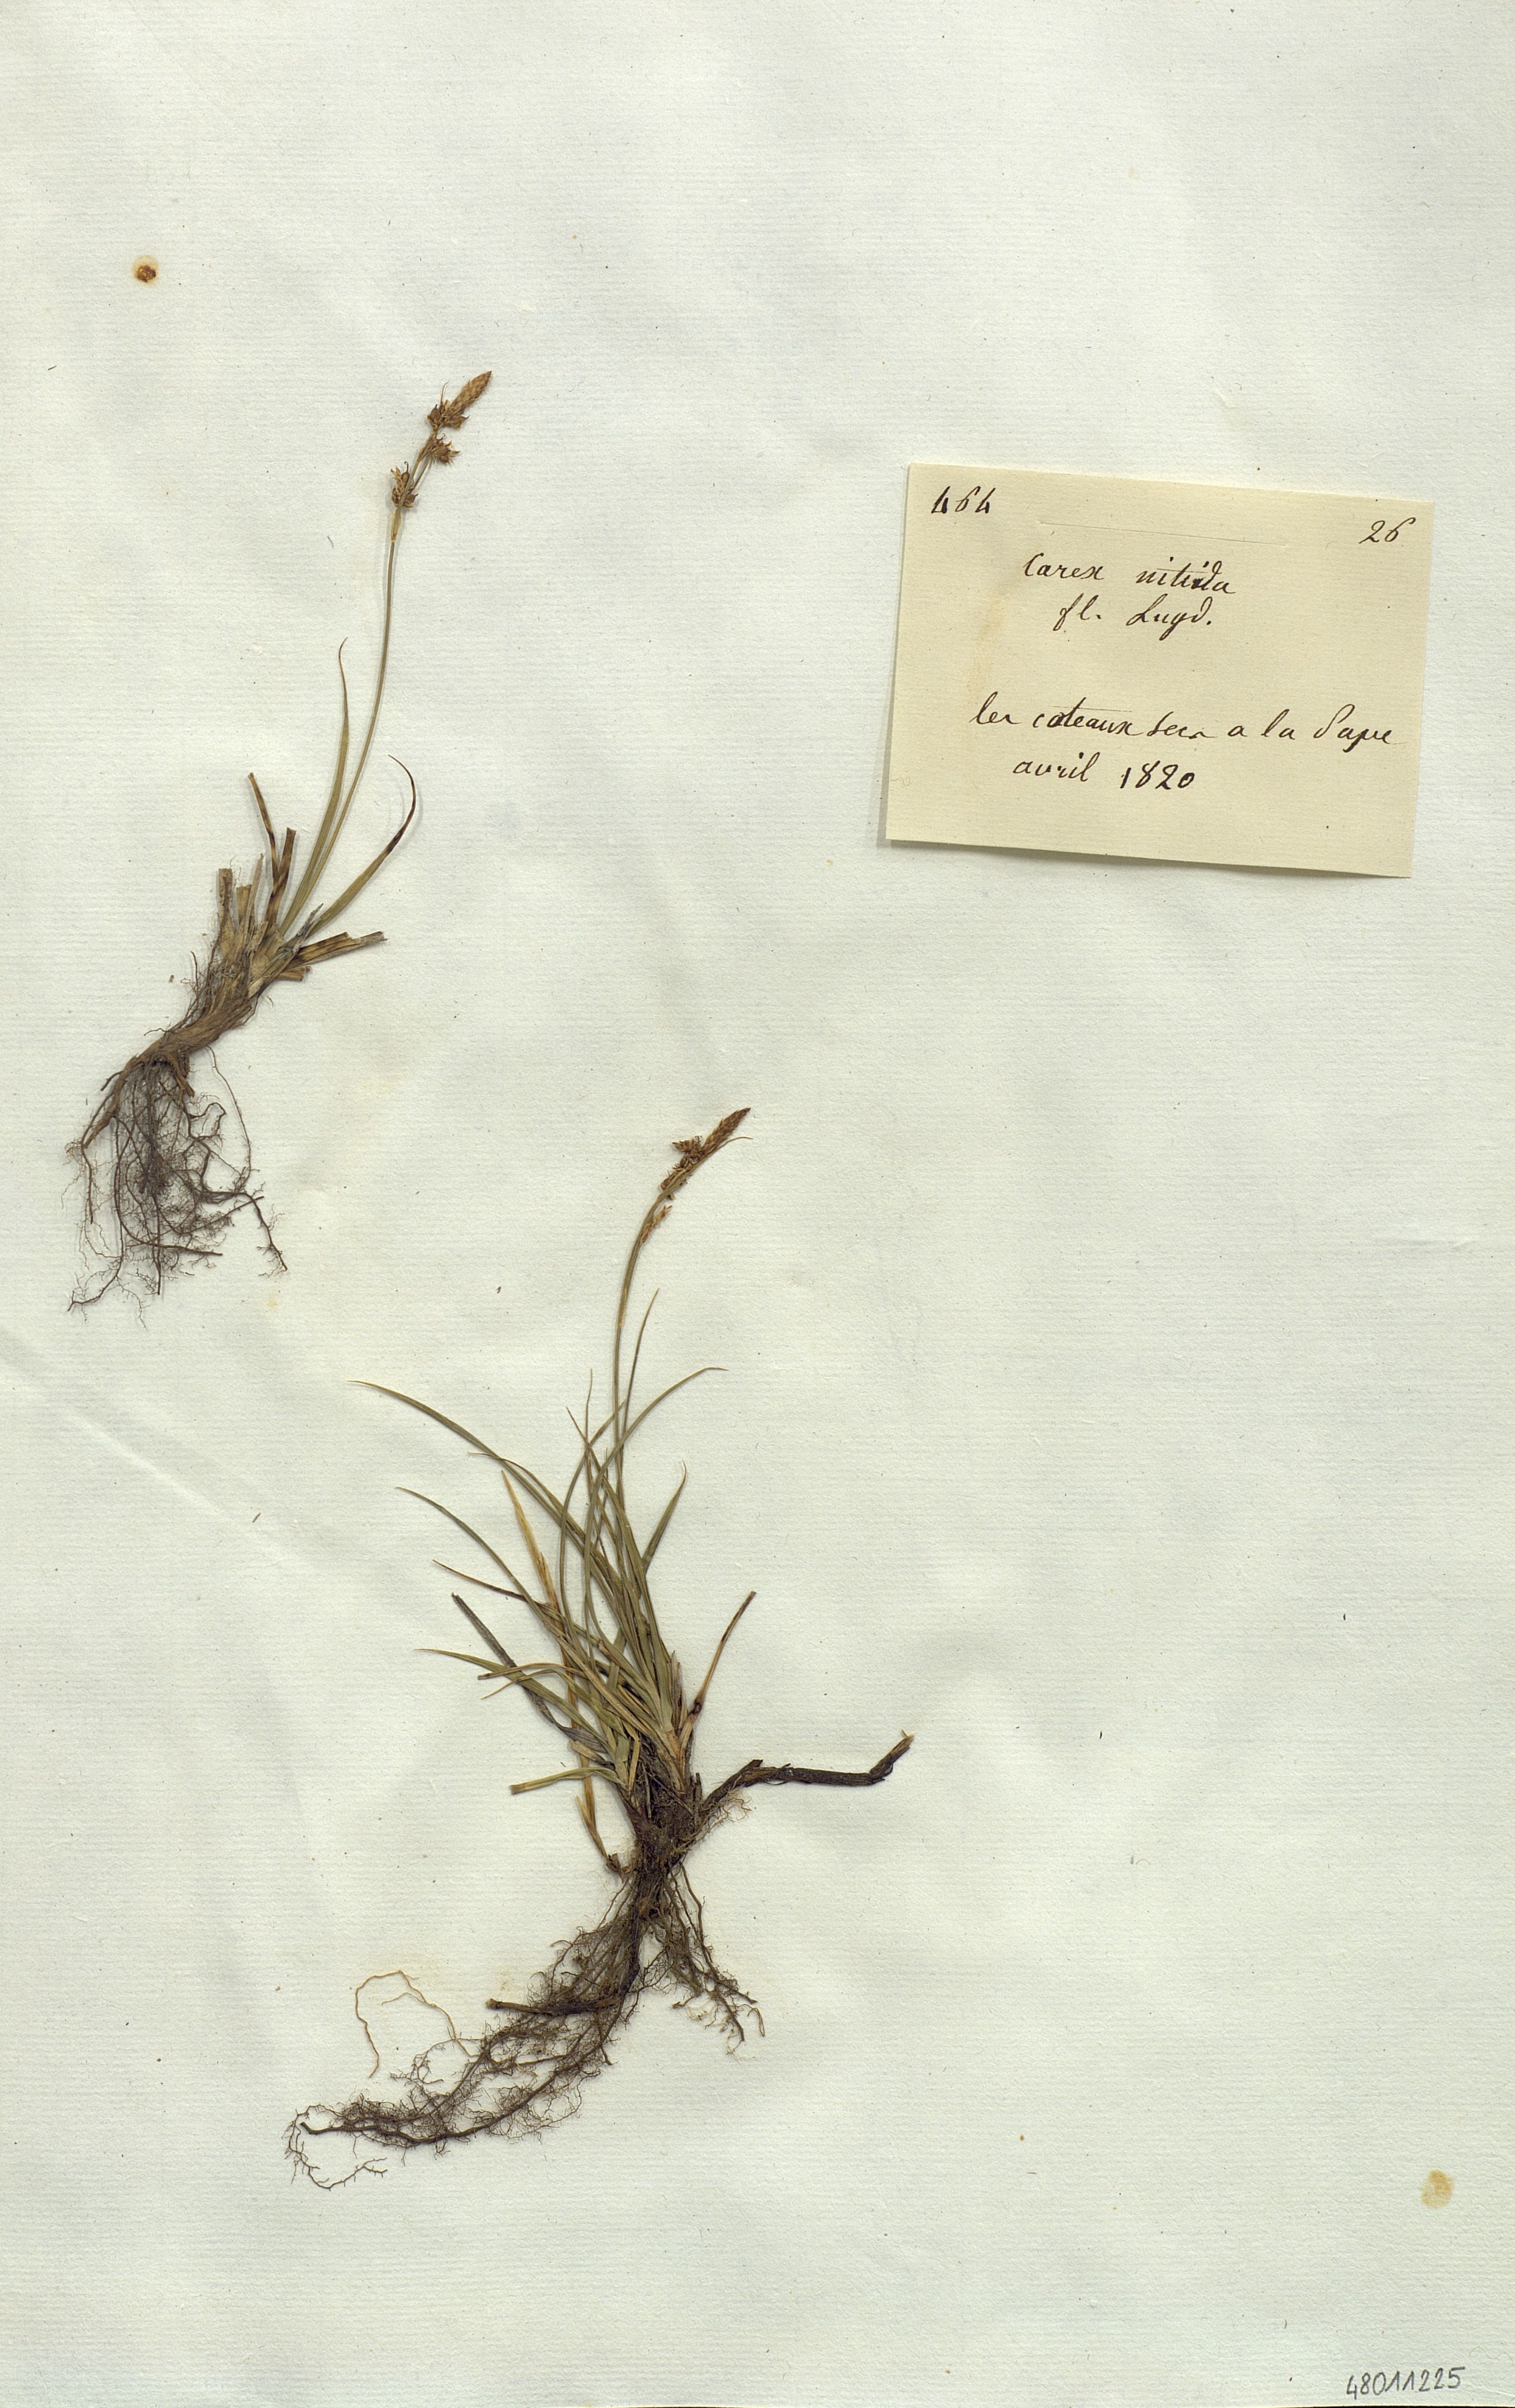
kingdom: Plantae
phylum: Tracheophyta
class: Liliopsida
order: Poales
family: Cyperaceae
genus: Carex
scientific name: Carex nitida
